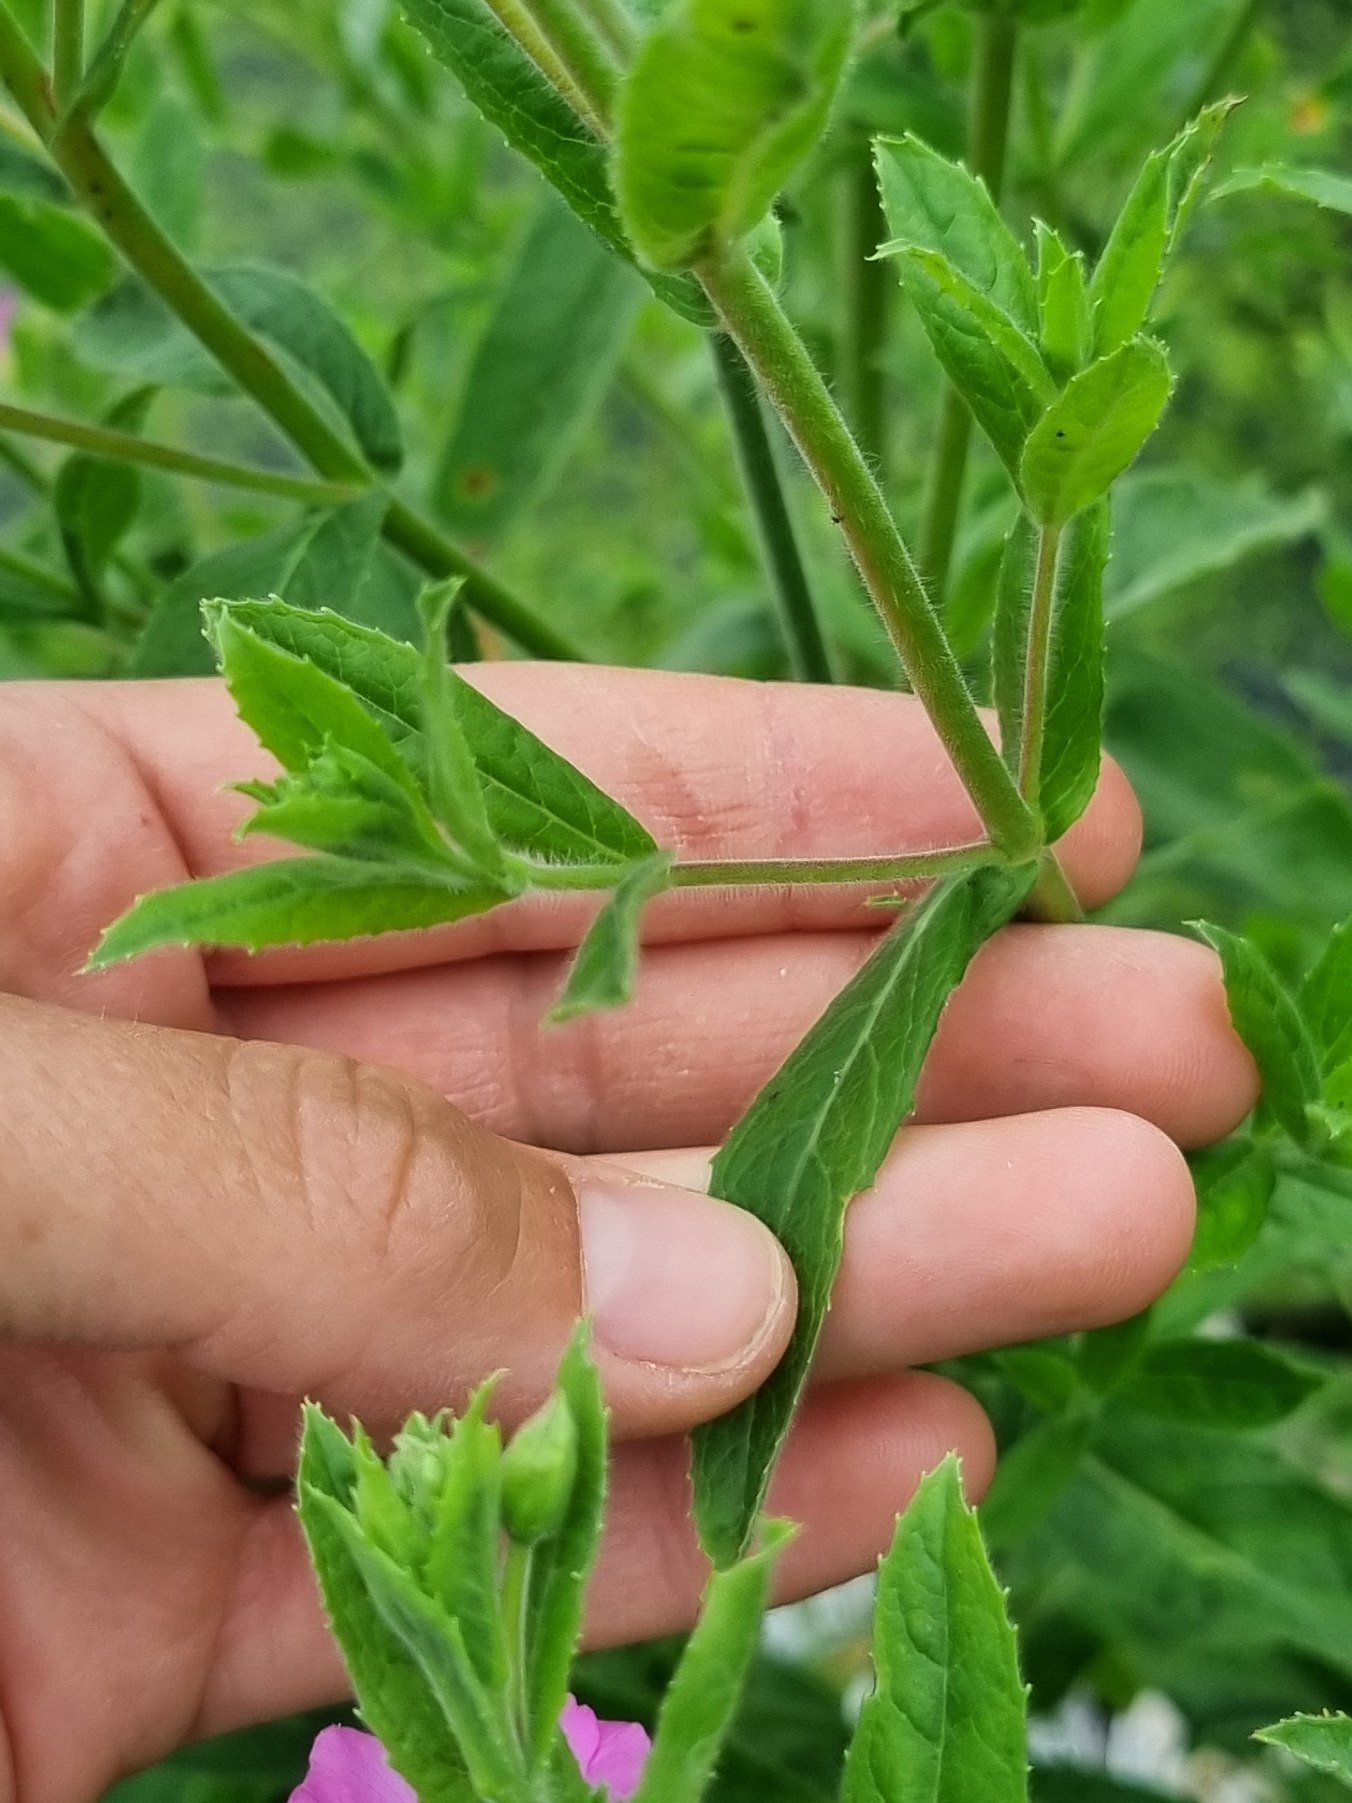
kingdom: Plantae
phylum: Tracheophyta
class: Magnoliopsida
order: Myrtales
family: Onagraceae
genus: Epilobium
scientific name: Epilobium hirsutum
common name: Lådden dueurt
